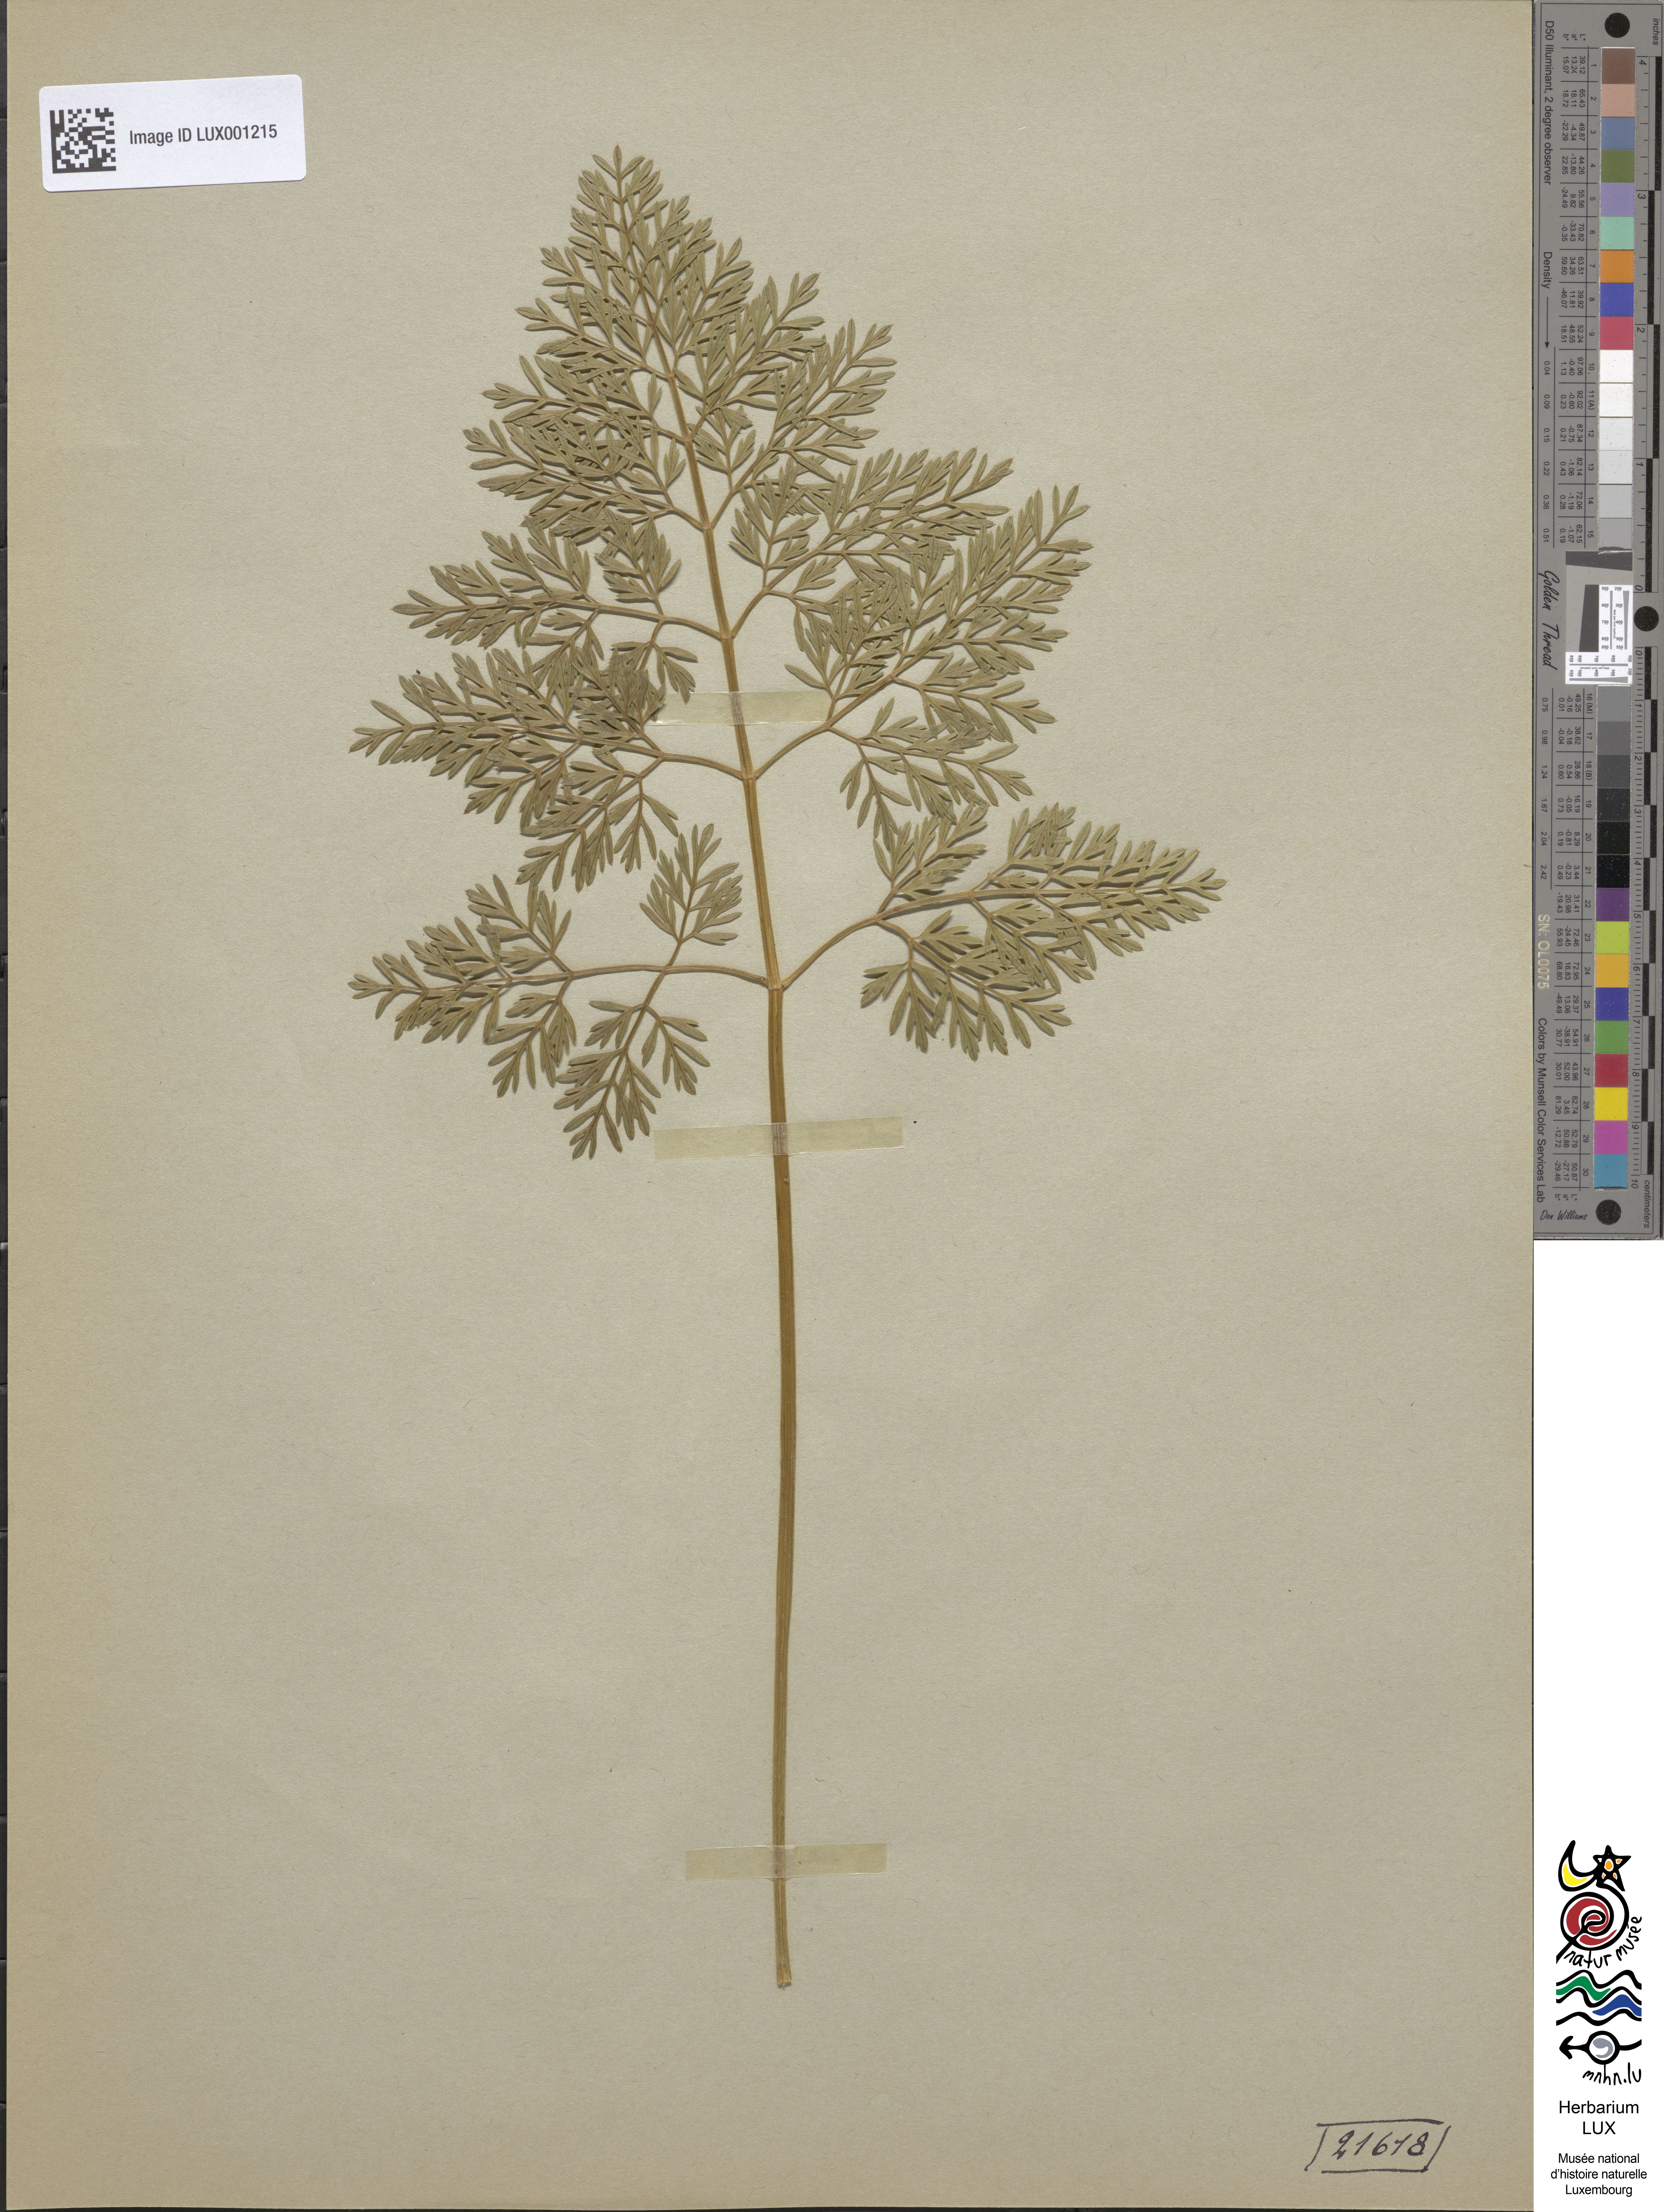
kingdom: Plantae
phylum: Tracheophyta
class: Magnoliopsida
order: Apiales
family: Apiaceae
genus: Selinum
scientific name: Selinum carvifolia
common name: Cambridge milk-parsley
